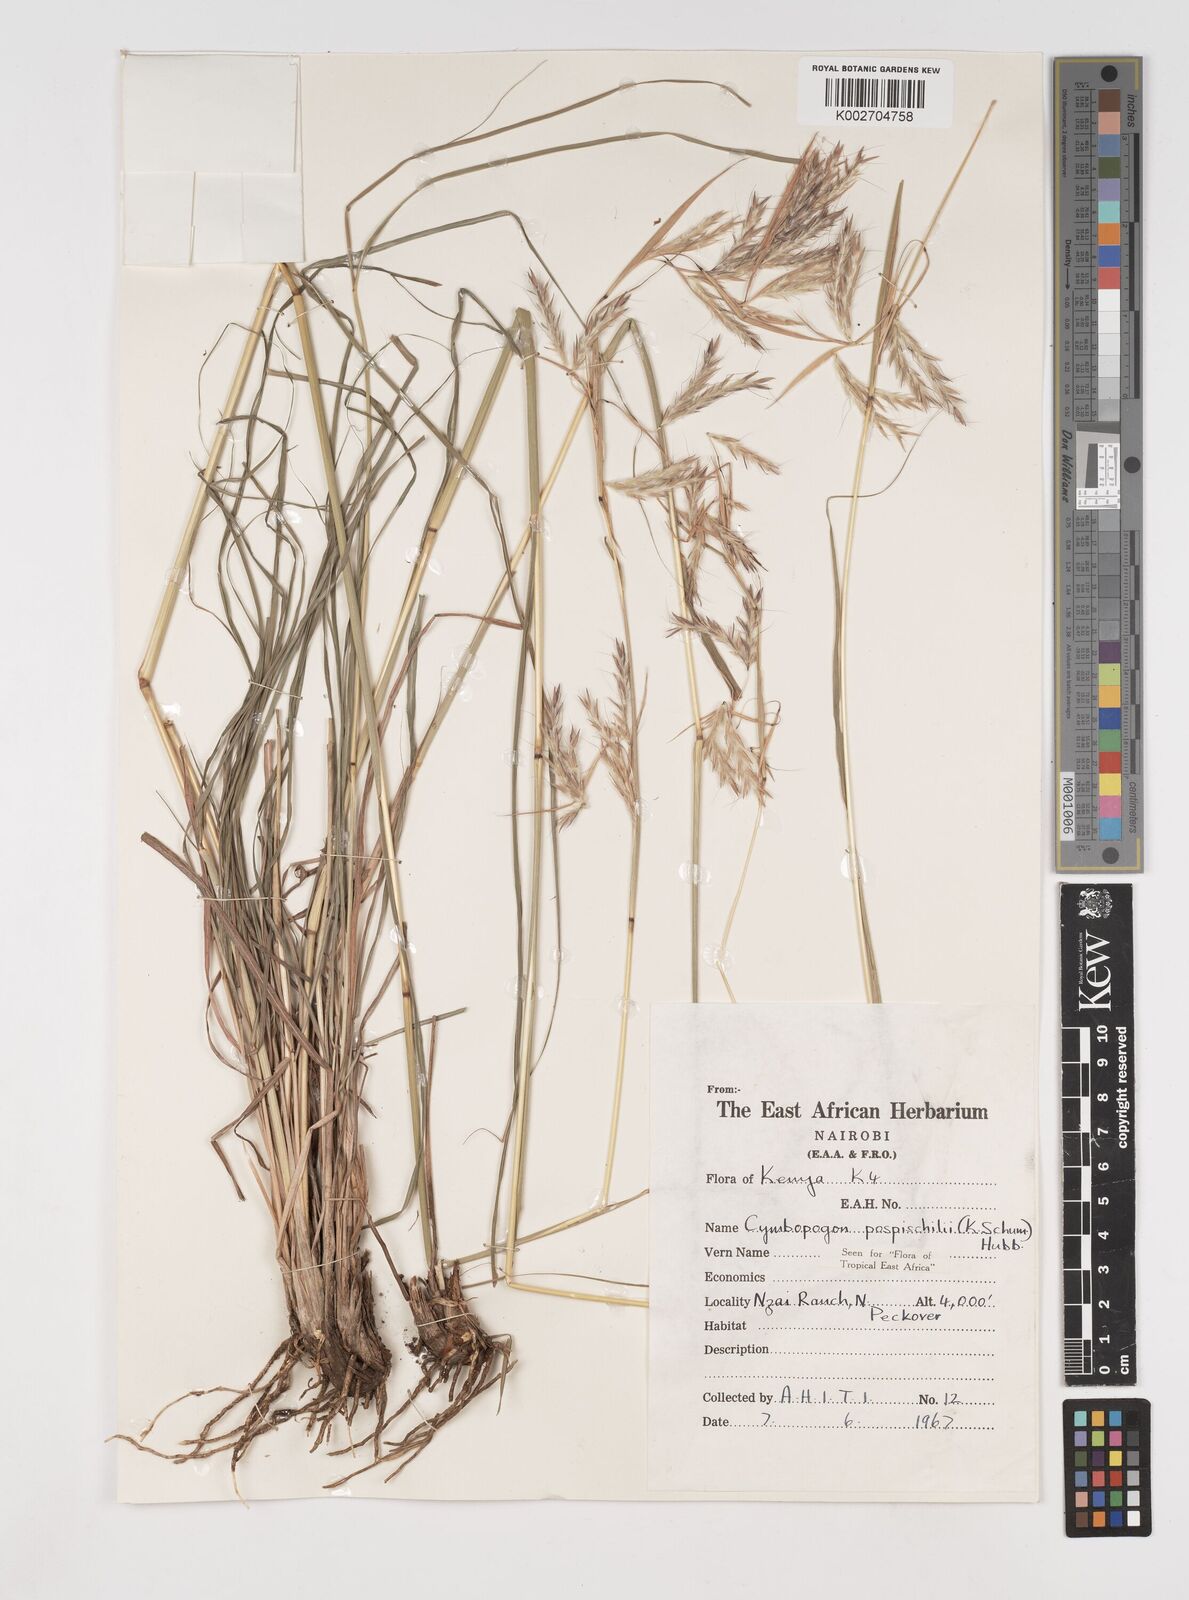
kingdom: Plantae
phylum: Tracheophyta
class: Liliopsida
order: Poales
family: Poaceae
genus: Cymbopogon
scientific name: Cymbopogon pospischilii
